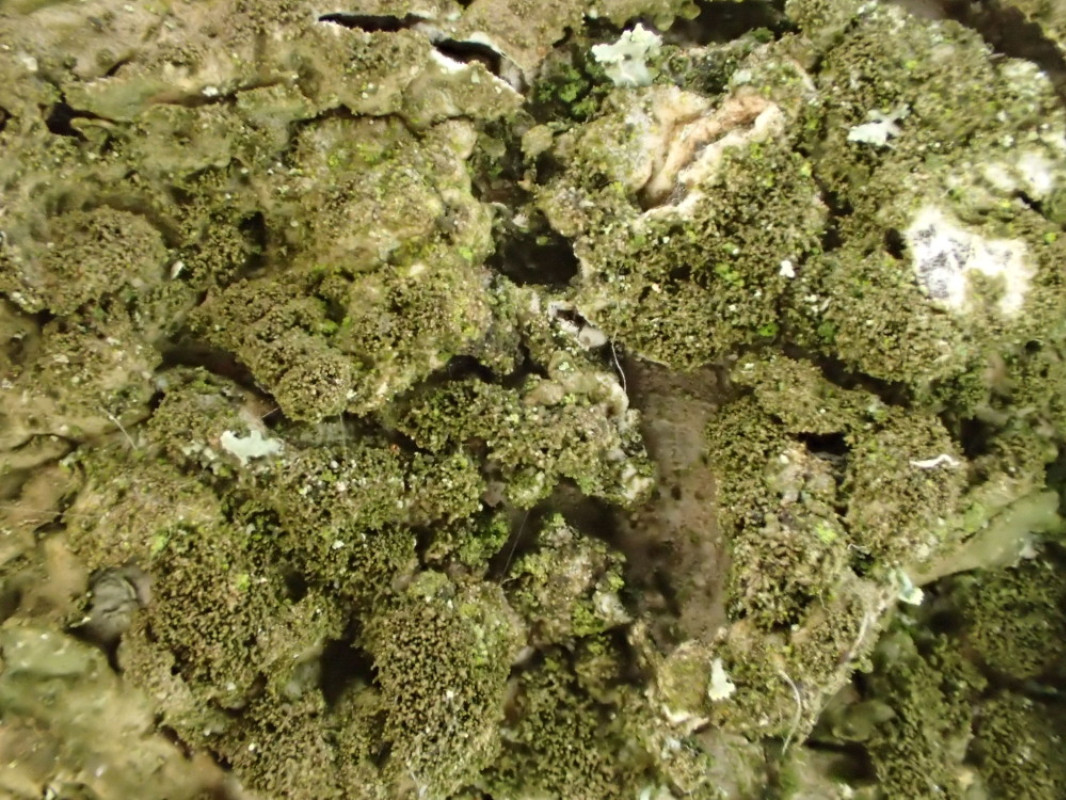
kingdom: Fungi
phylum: Ascomycota
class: Lecanoromycetes
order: Lecanorales
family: Parmeliaceae
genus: Melanelixia
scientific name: Melanelixia glabratula
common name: glinsende skållav
